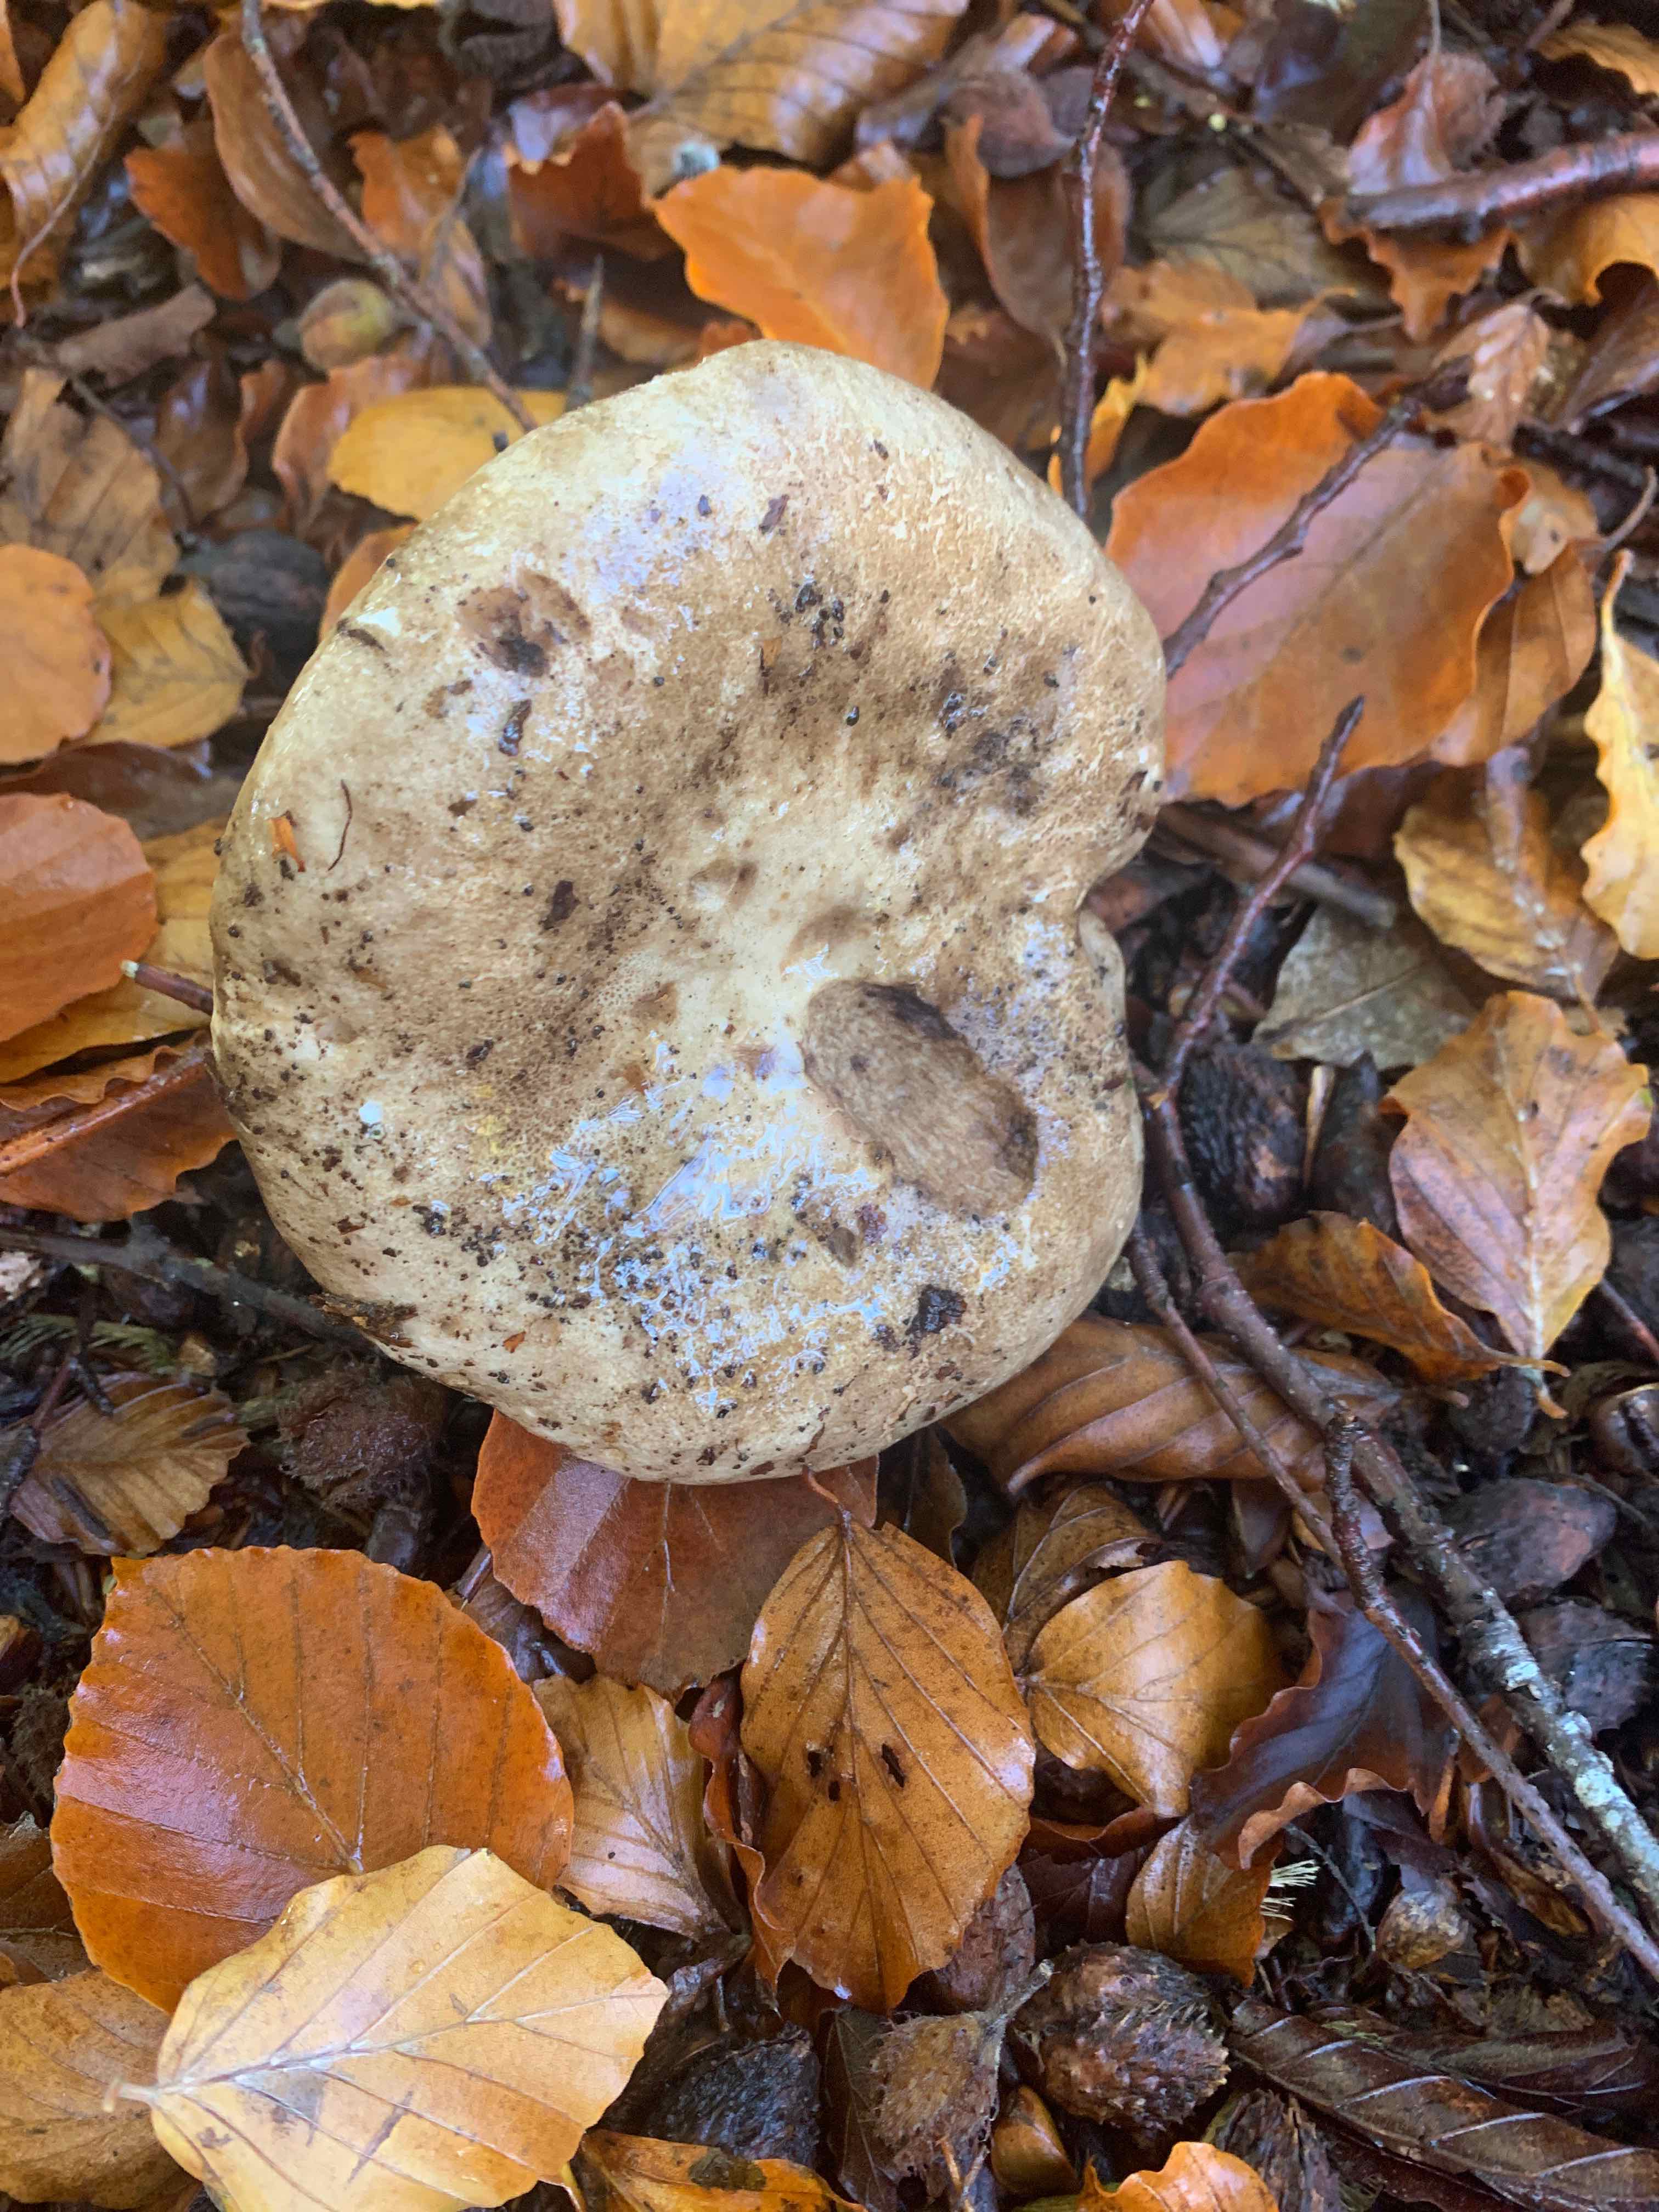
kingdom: Fungi
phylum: Basidiomycota
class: Agaricomycetes
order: Russulales
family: Russulaceae
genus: Russula
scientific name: Russula adusta
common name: sværtende skørhat
